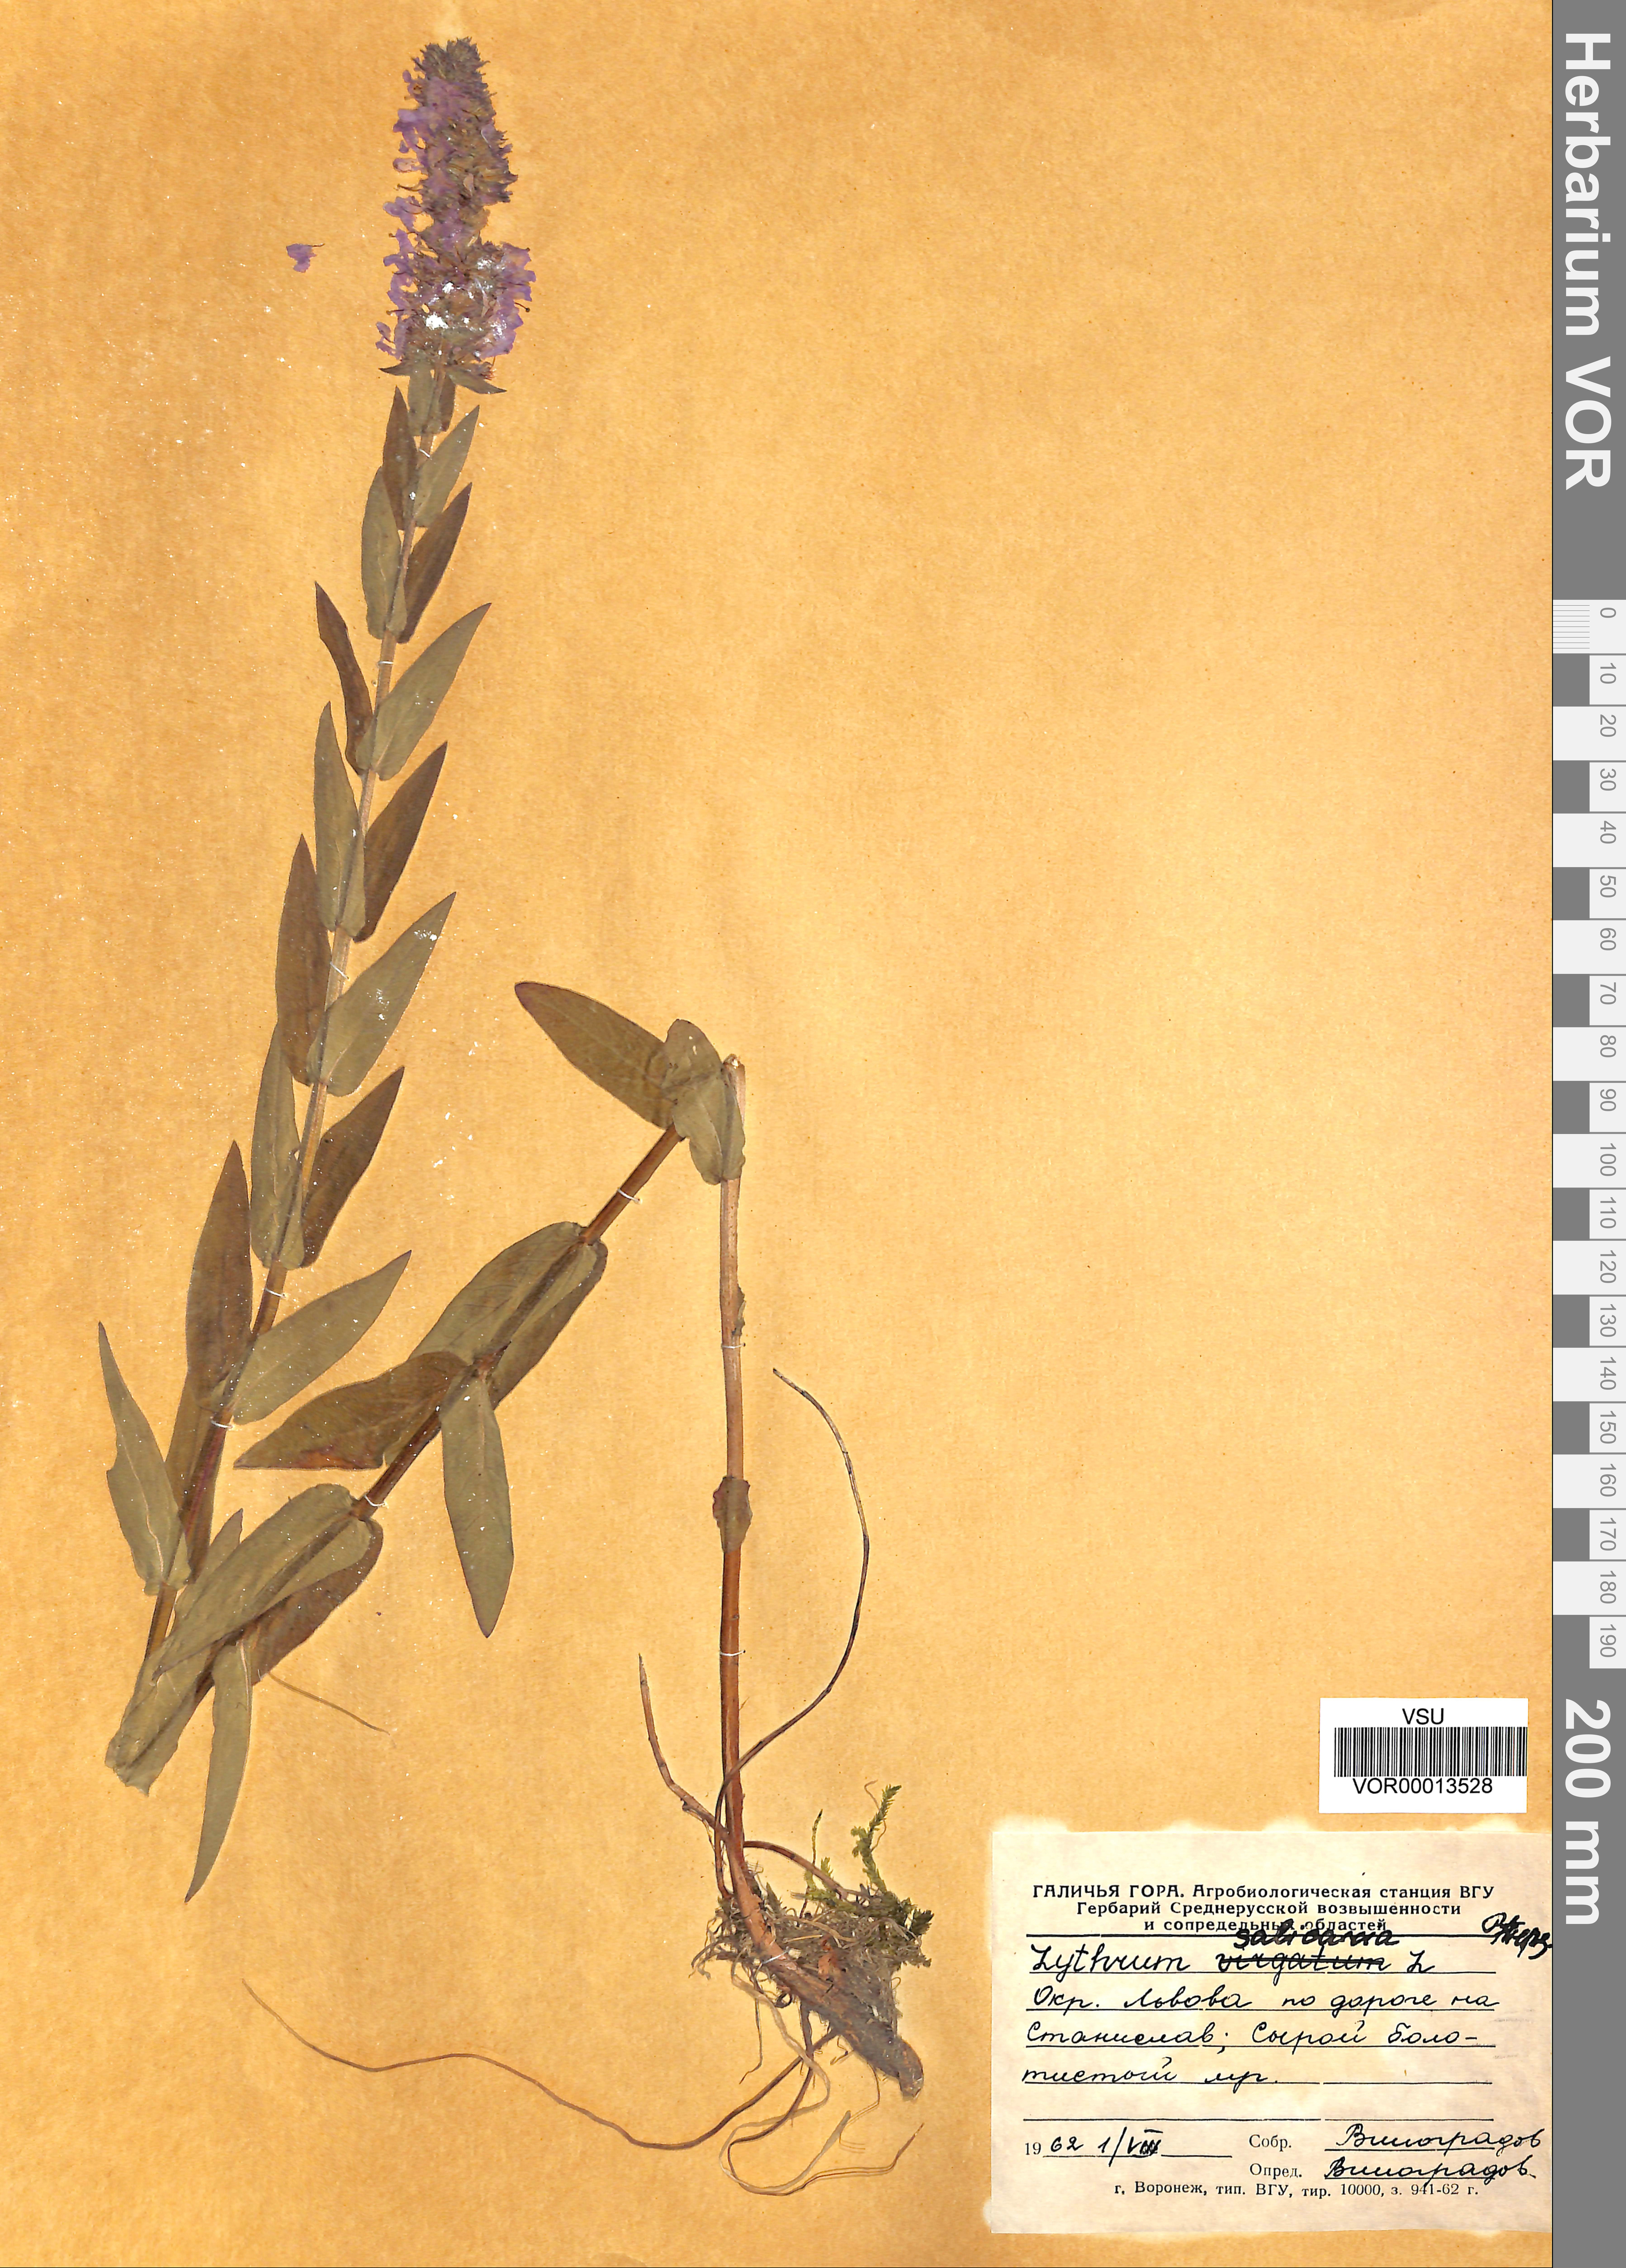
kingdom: Plantae
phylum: Tracheophyta
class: Magnoliopsida
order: Myrtales
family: Lythraceae
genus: Lythrum
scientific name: Lythrum salicaria
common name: Purple loosestrife
